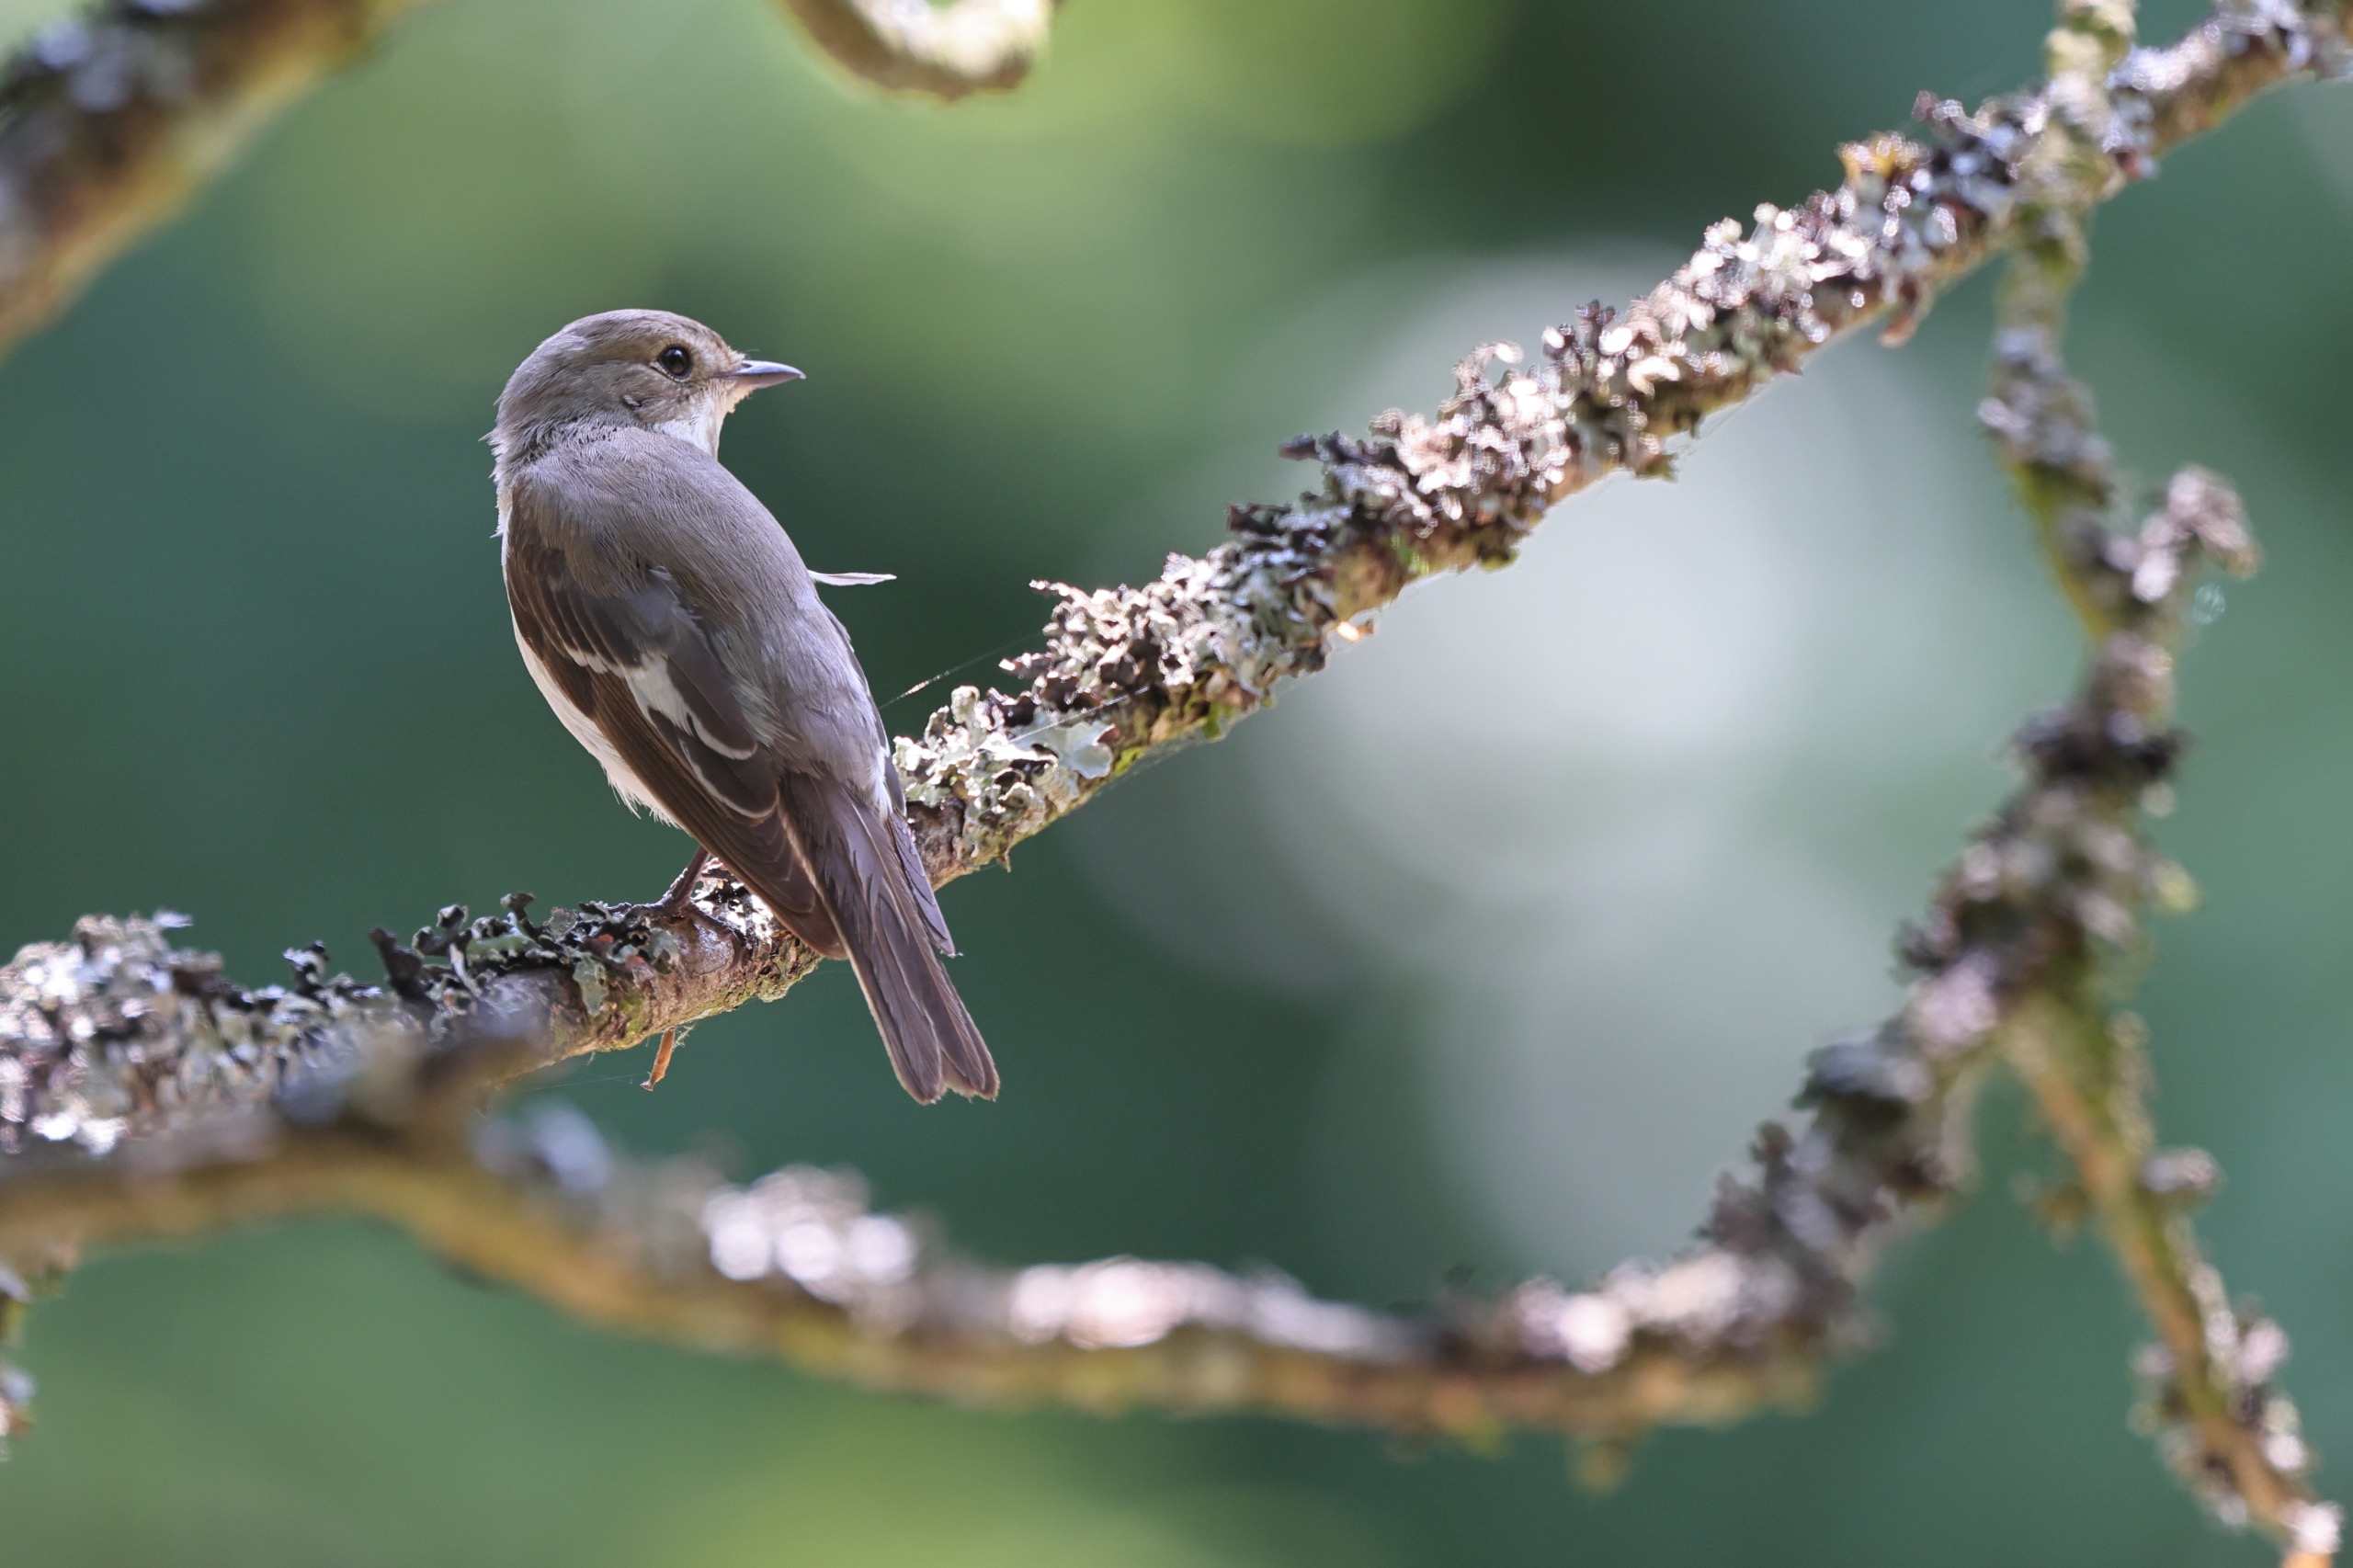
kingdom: Animalia
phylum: Chordata
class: Aves
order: Passeriformes
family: Muscicapidae
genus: Ficedula
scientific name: Ficedula hypoleuca
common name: Broget fluesnapper
